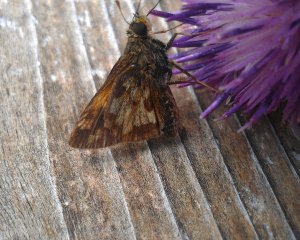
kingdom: Animalia
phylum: Arthropoda
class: Insecta
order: Lepidoptera
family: Hesperiidae
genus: Polites
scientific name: Polites coras
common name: Peck's Skipper
